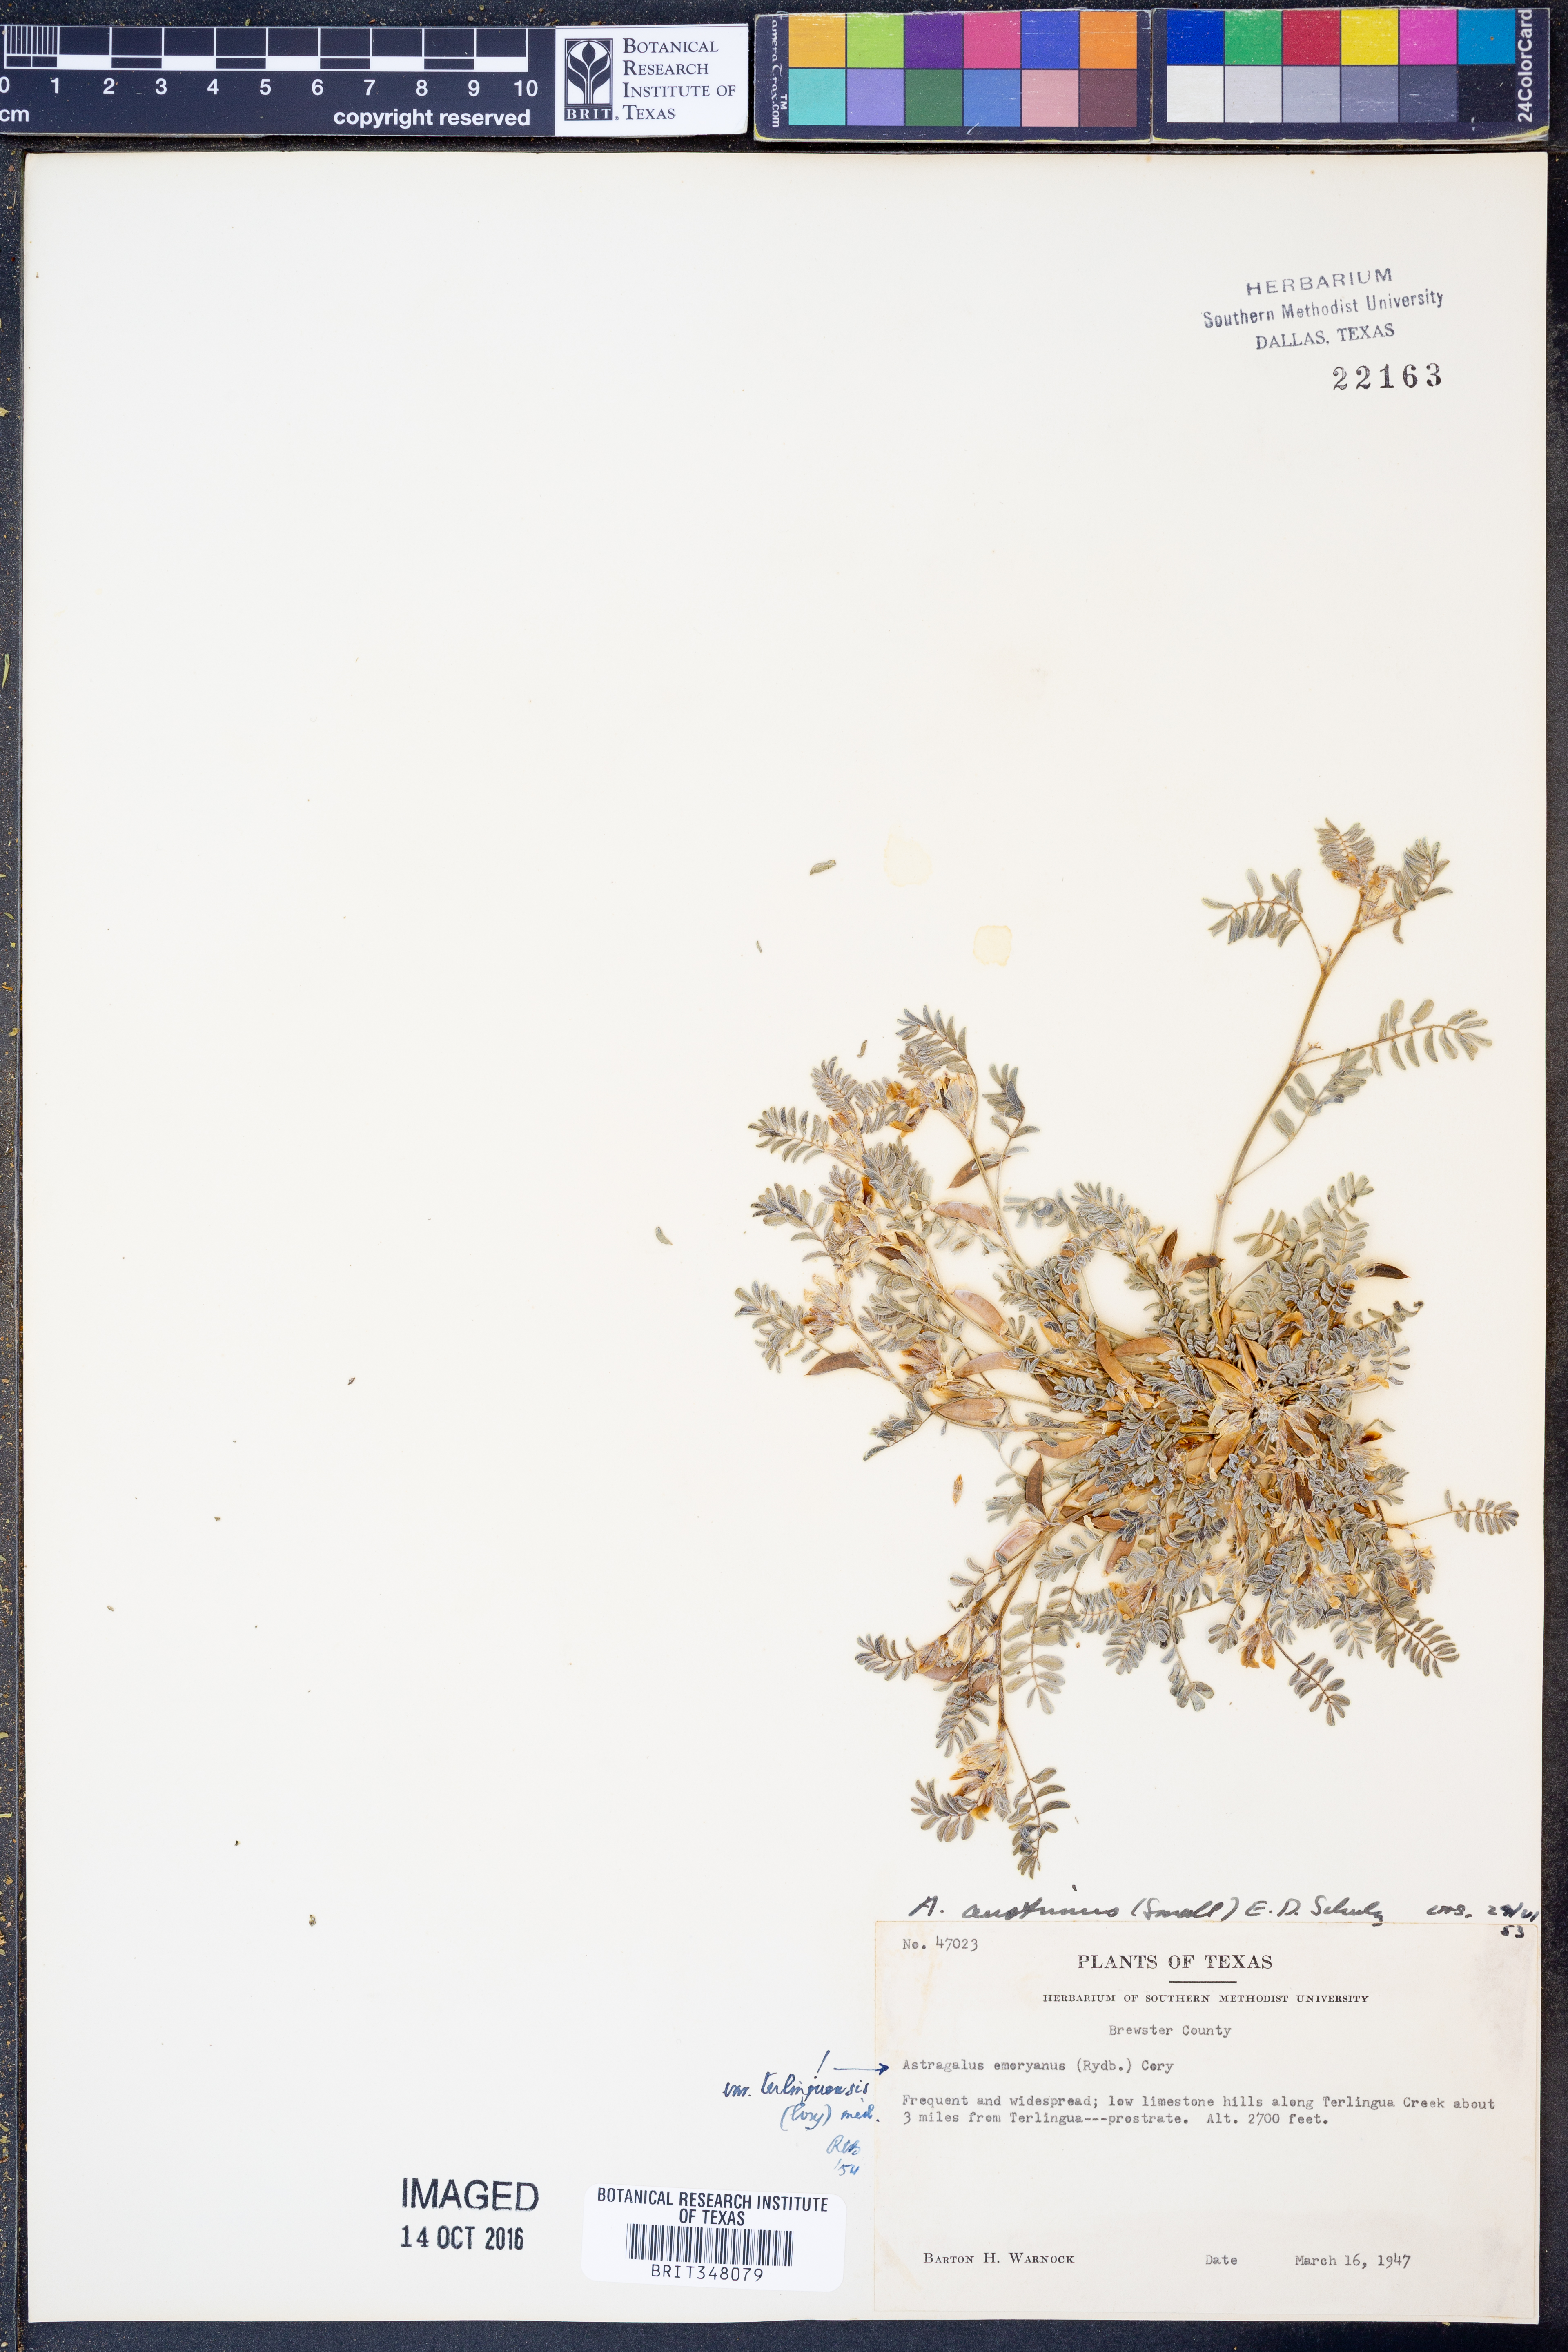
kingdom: Plantae
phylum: Tracheophyta
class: Magnoliopsida
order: Fabales
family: Fabaceae
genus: Astragalus
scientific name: Astragalus emoryanus
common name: Emory's milk-vetch
